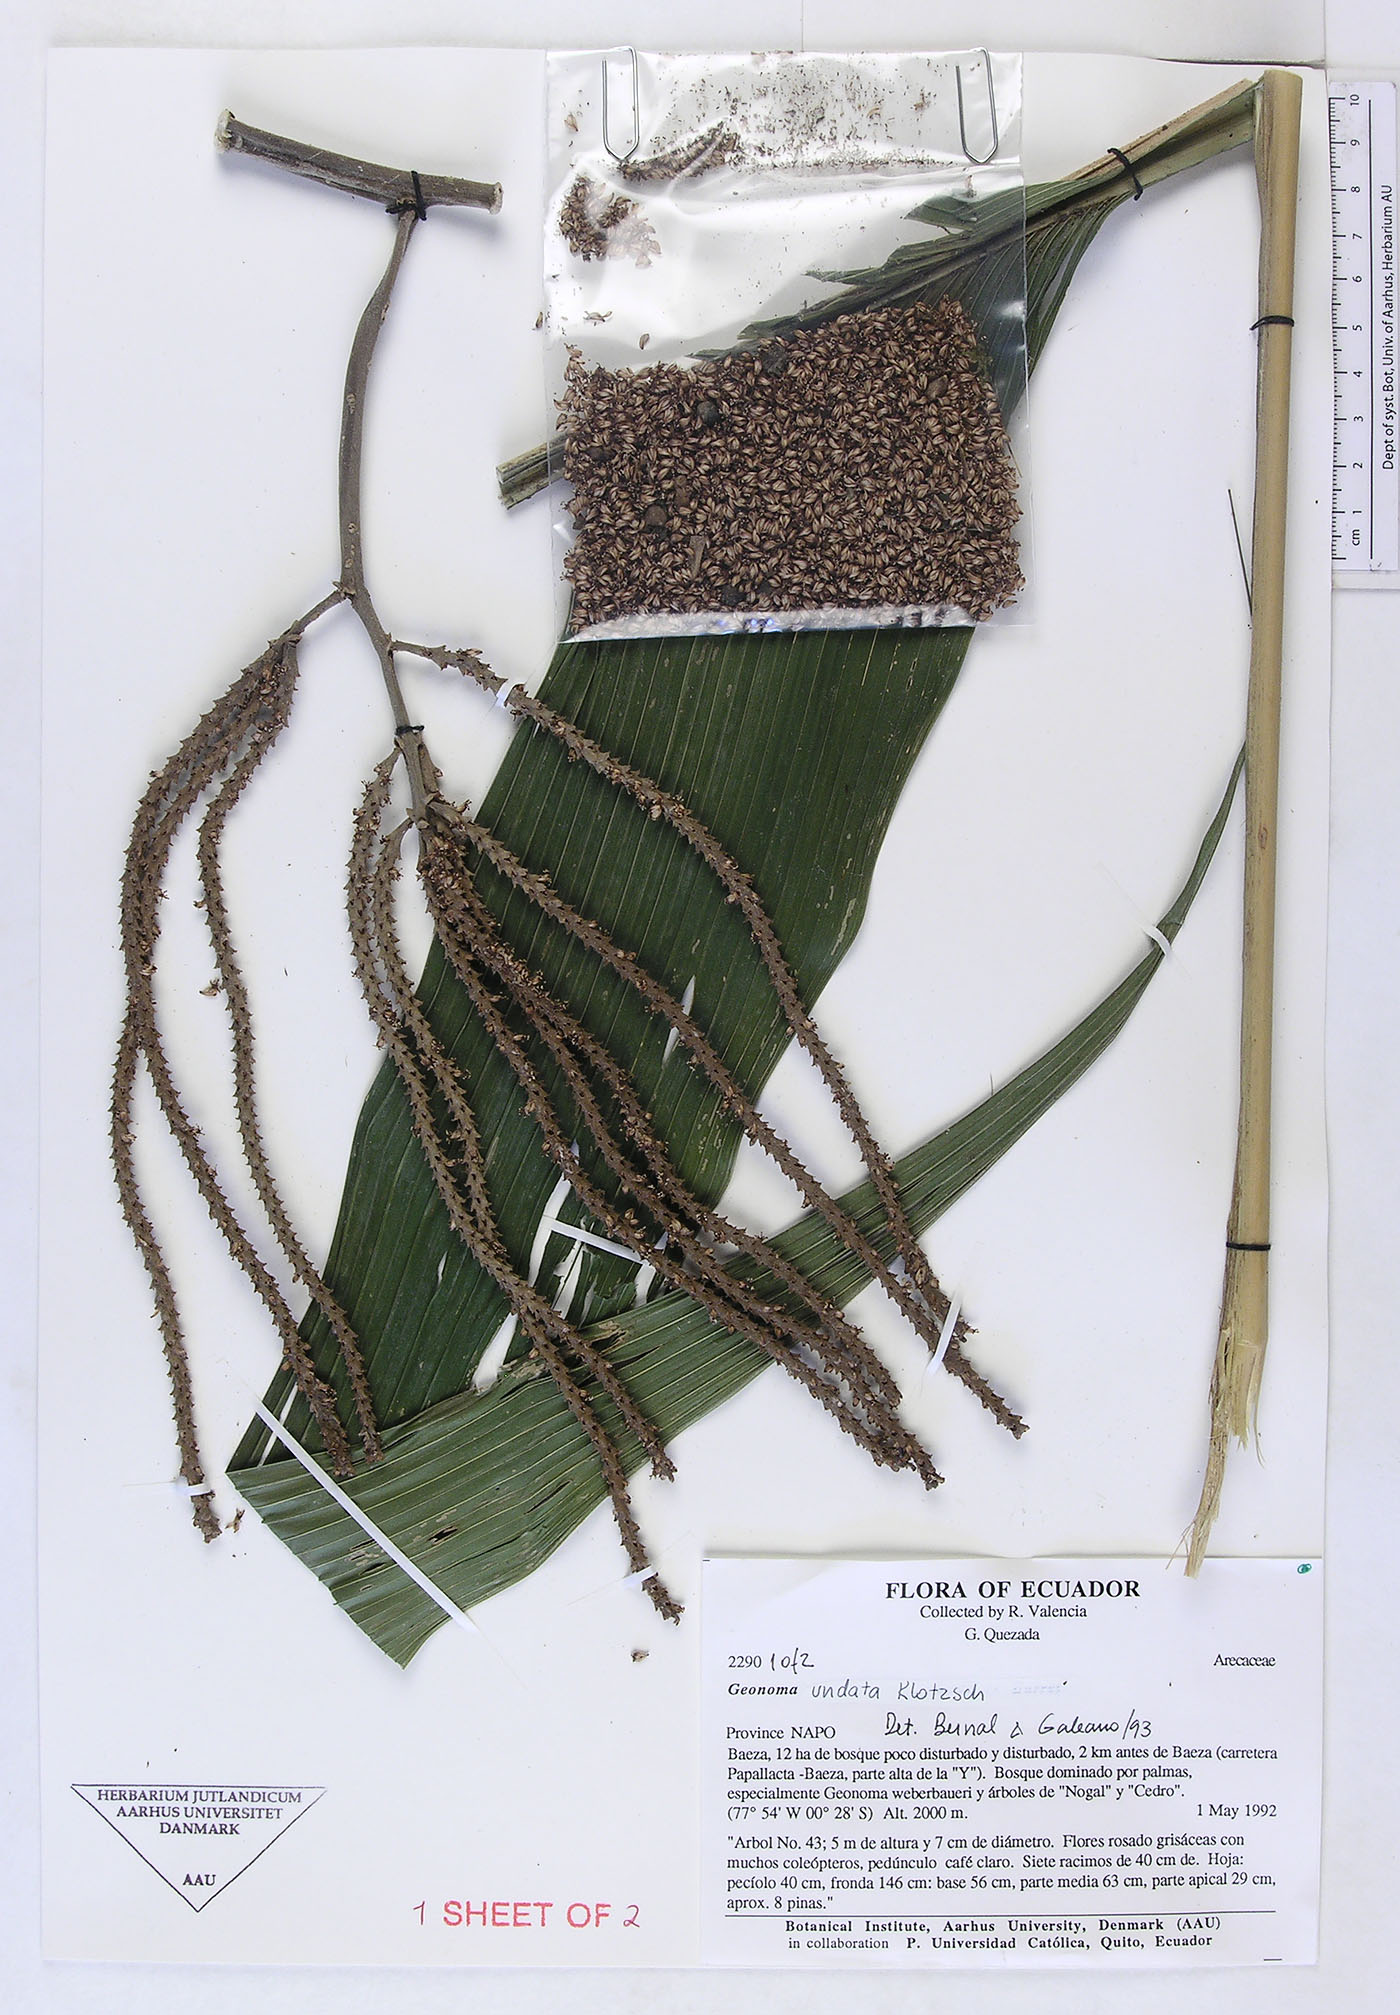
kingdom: Plantae
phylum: Tracheophyta
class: Liliopsida
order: Arecales
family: Arecaceae
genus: Geonoma
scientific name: Geonoma undata
